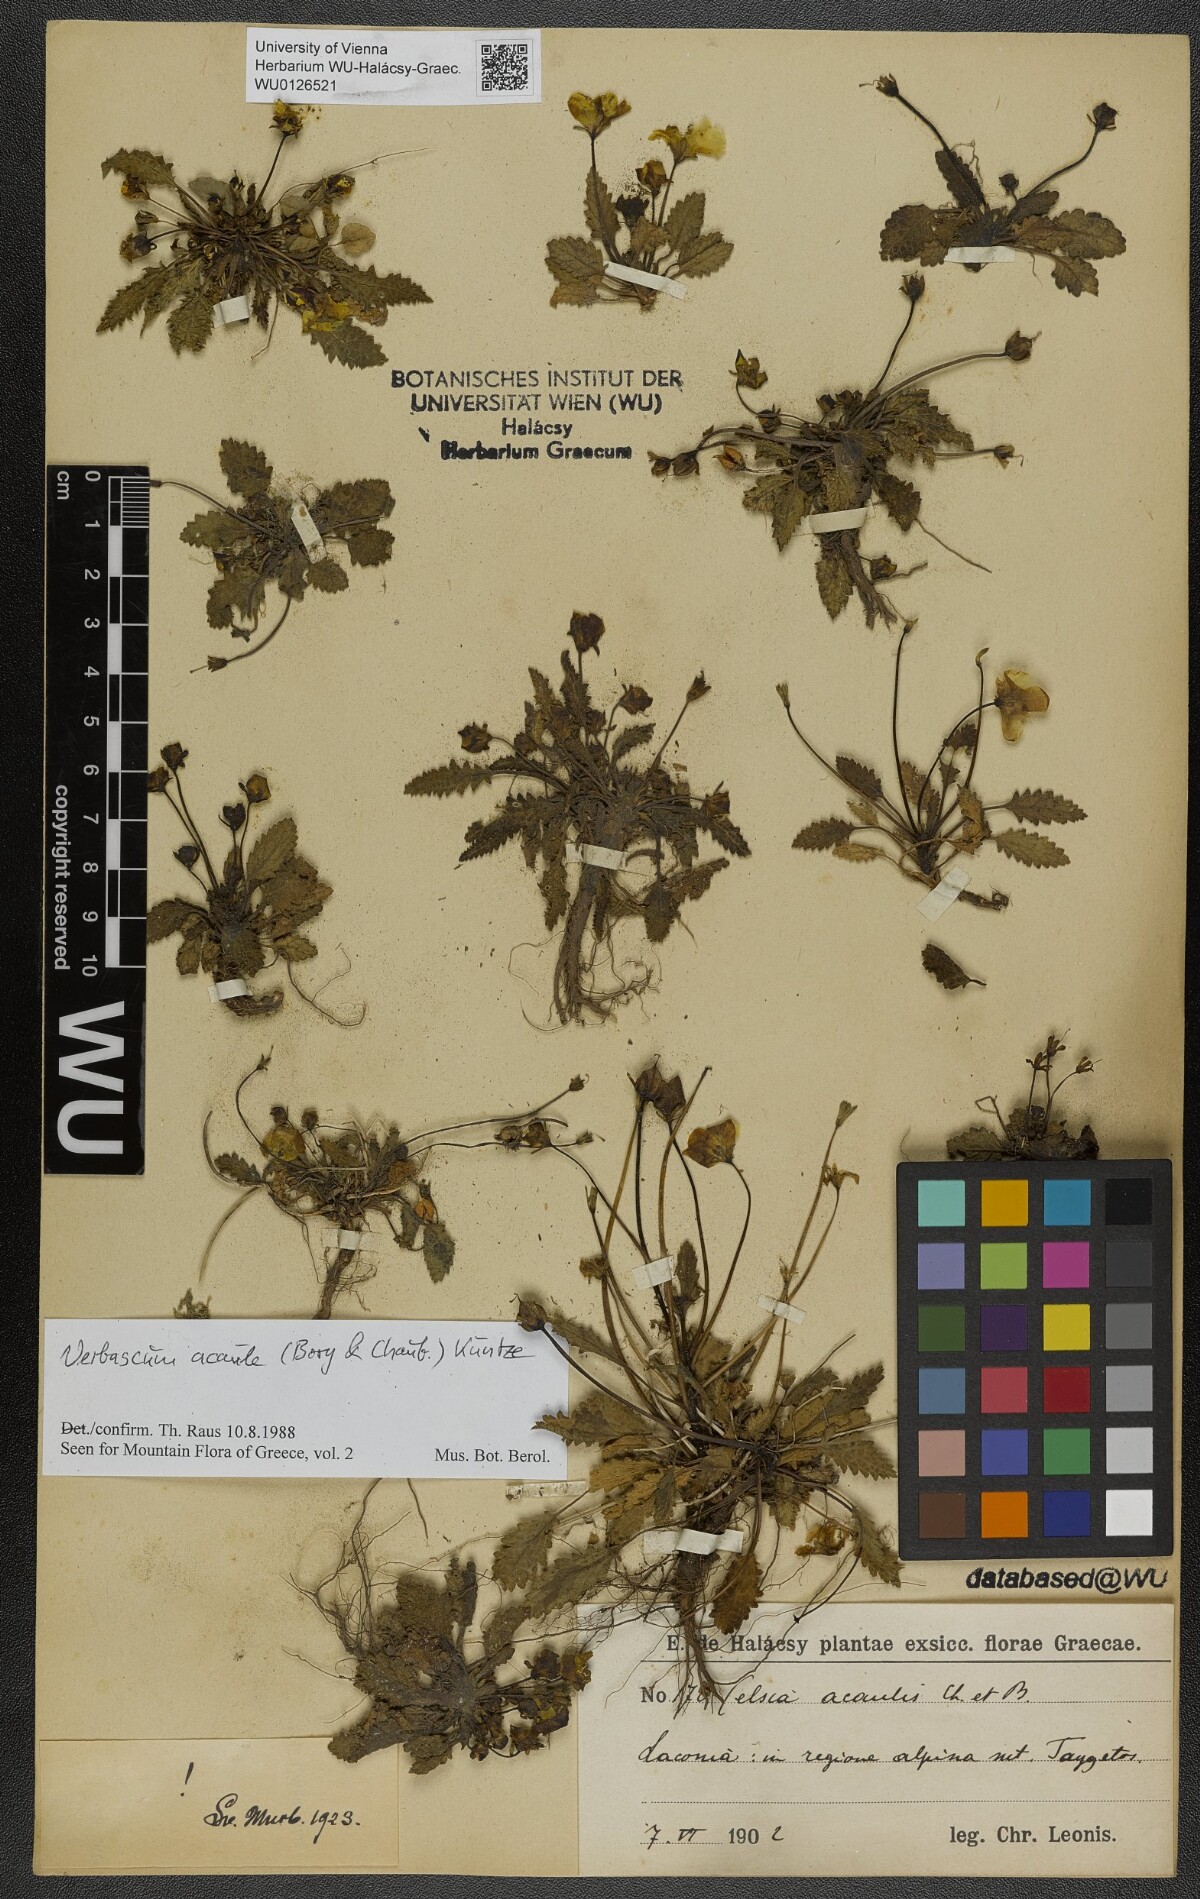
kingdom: Plantae
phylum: Tracheophyta
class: Magnoliopsida
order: Lamiales
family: Scrophulariaceae
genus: Verbascum
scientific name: Verbascum acaule
